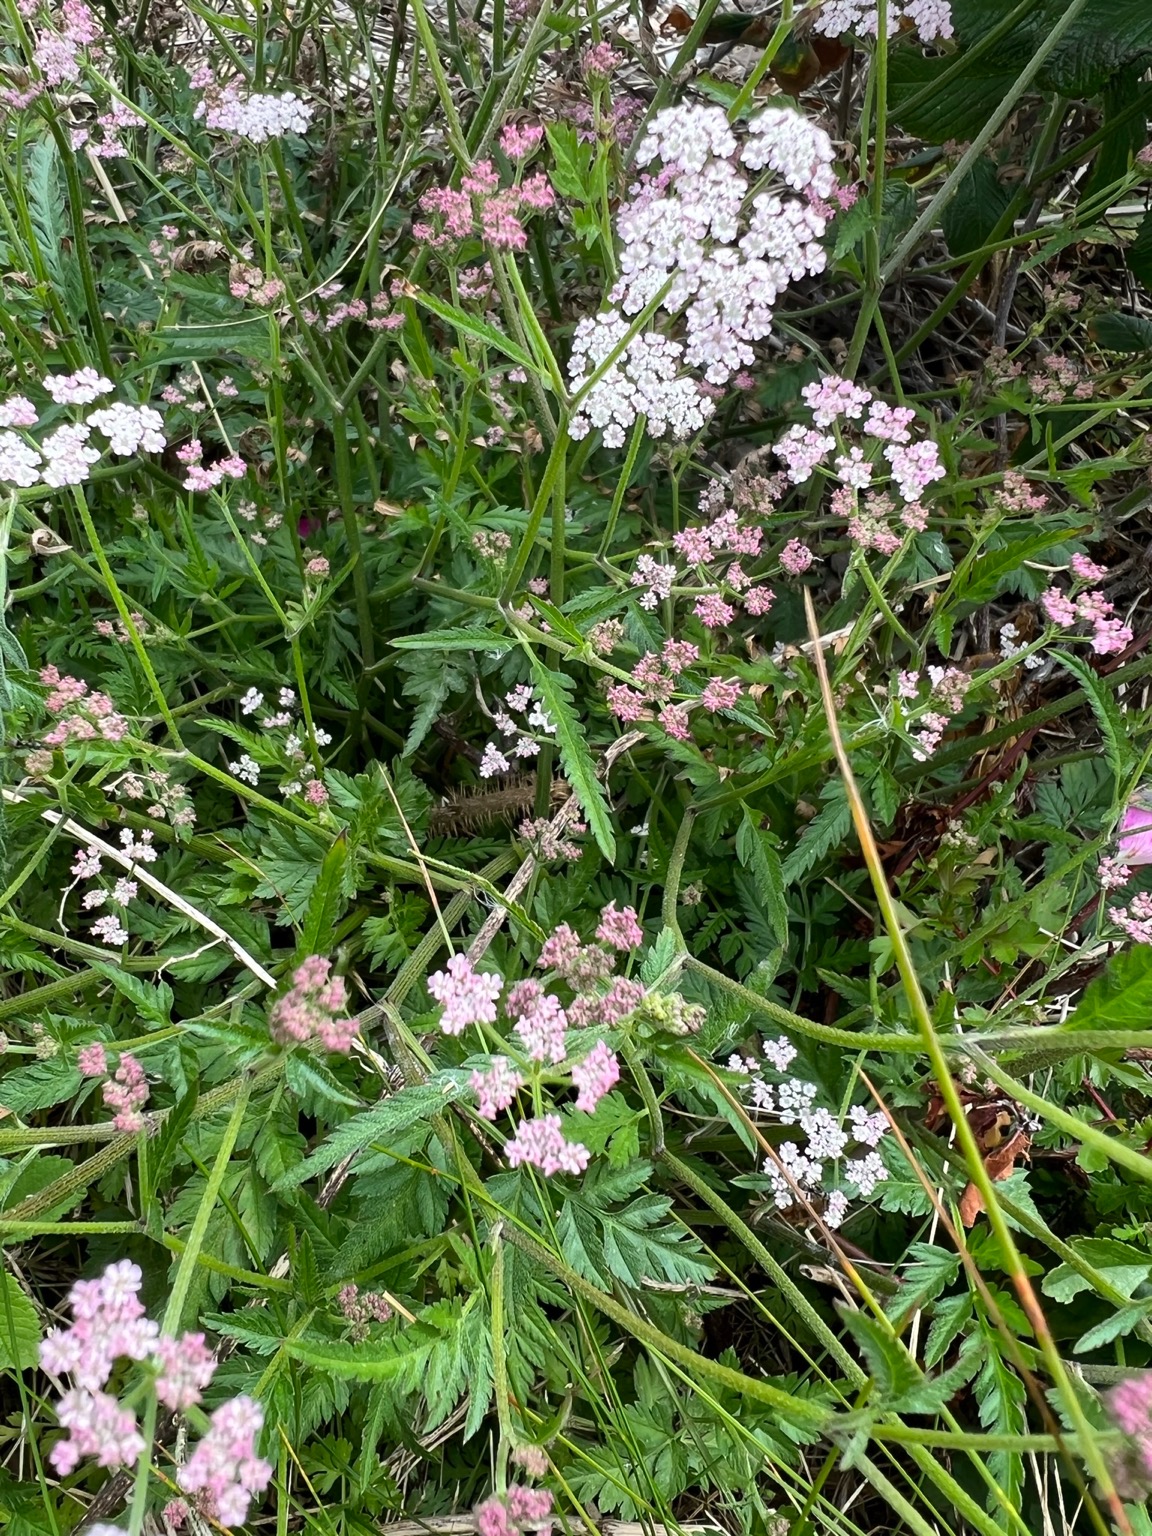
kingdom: Plantae
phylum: Tracheophyta
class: Magnoliopsida
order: Apiales
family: Apiaceae
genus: Torilis
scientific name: Torilis japonica
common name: Hvas randfrø
